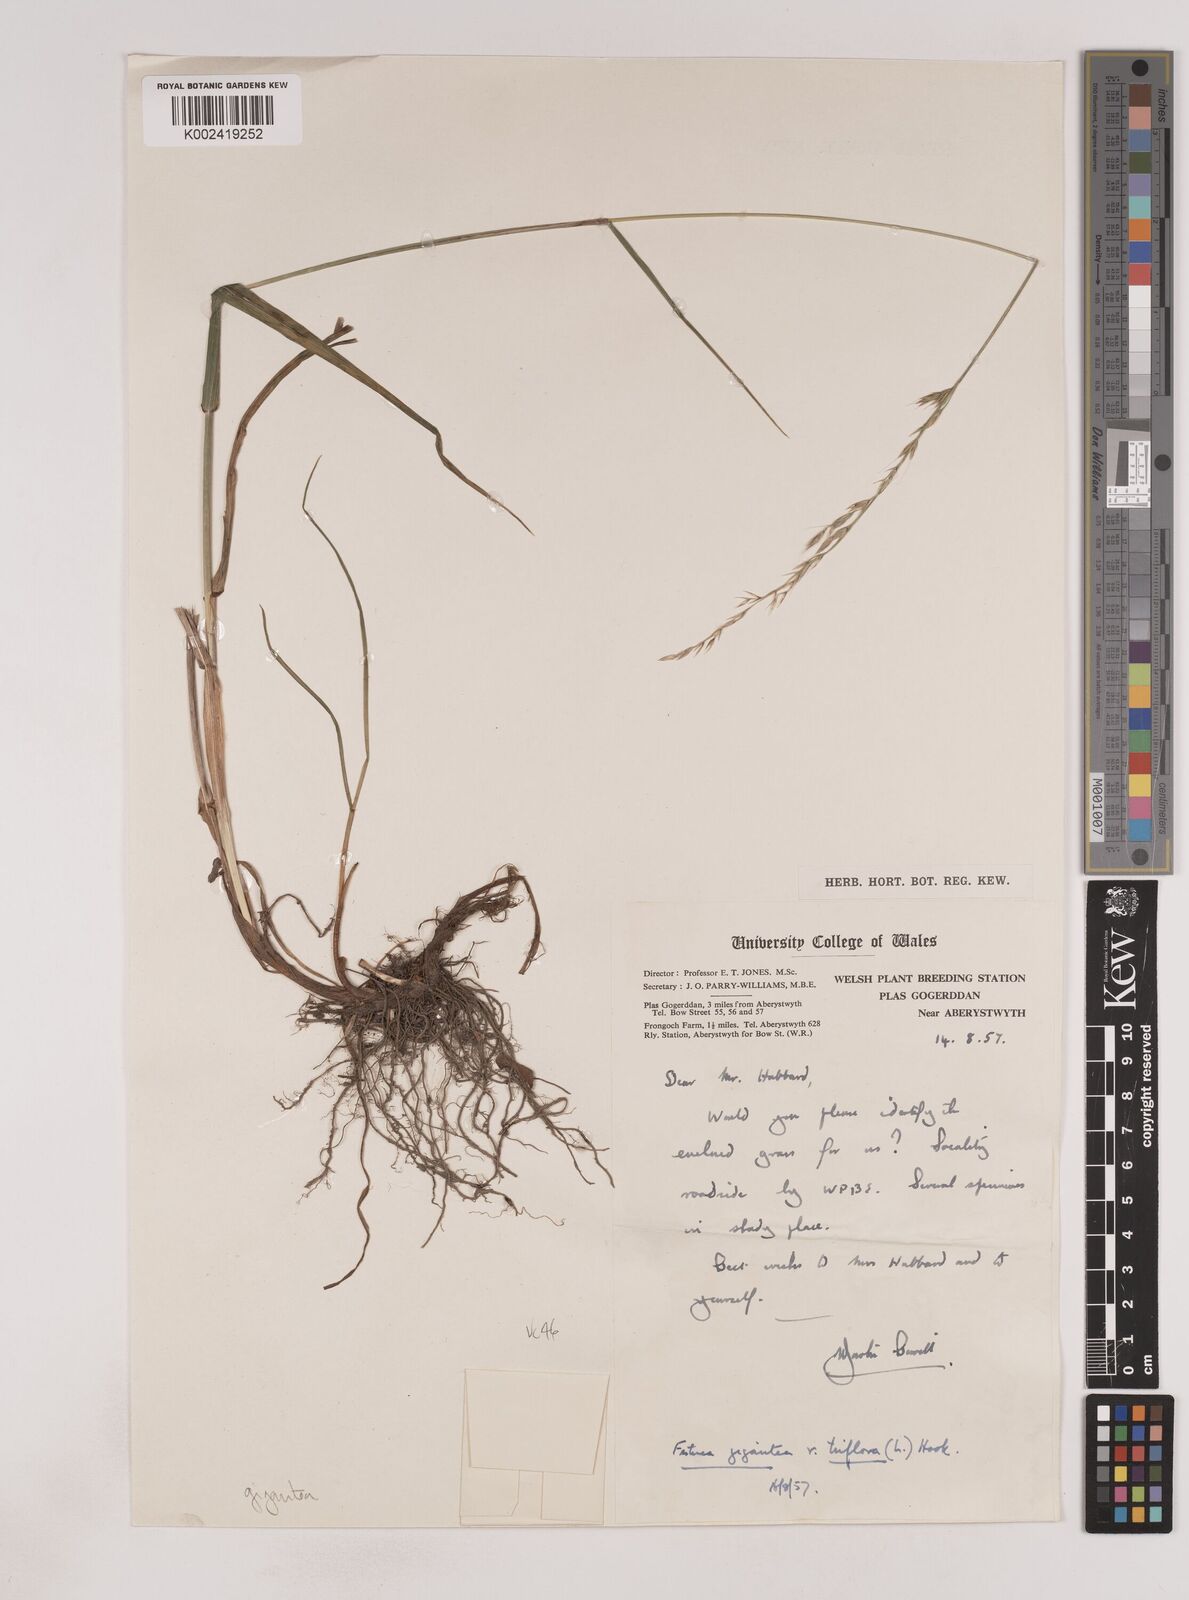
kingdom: Plantae
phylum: Tracheophyta
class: Liliopsida
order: Poales
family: Poaceae
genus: Lolium
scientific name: Lolium giganteum
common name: Giant fescue
